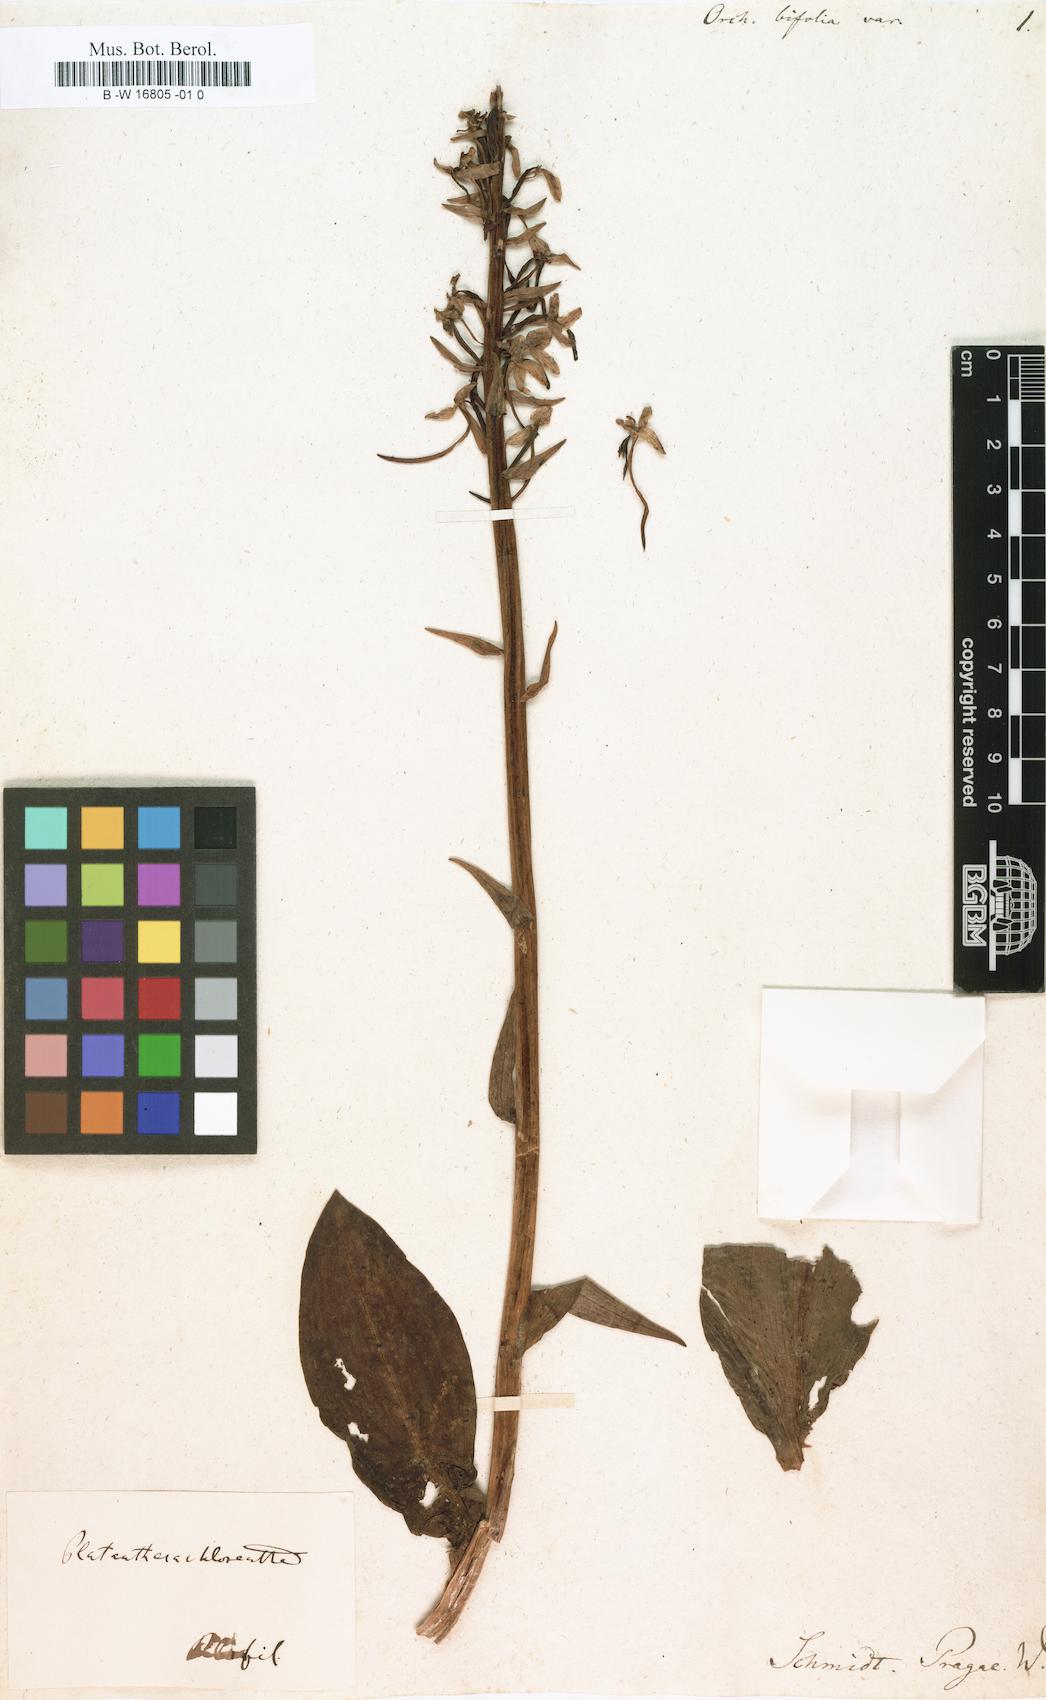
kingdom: Plantae
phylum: Tracheophyta
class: Liliopsida
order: Asparagales
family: Orchidaceae
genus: Platanthera
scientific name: Platanthera bifolia
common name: Lesser butterfly-orchid
